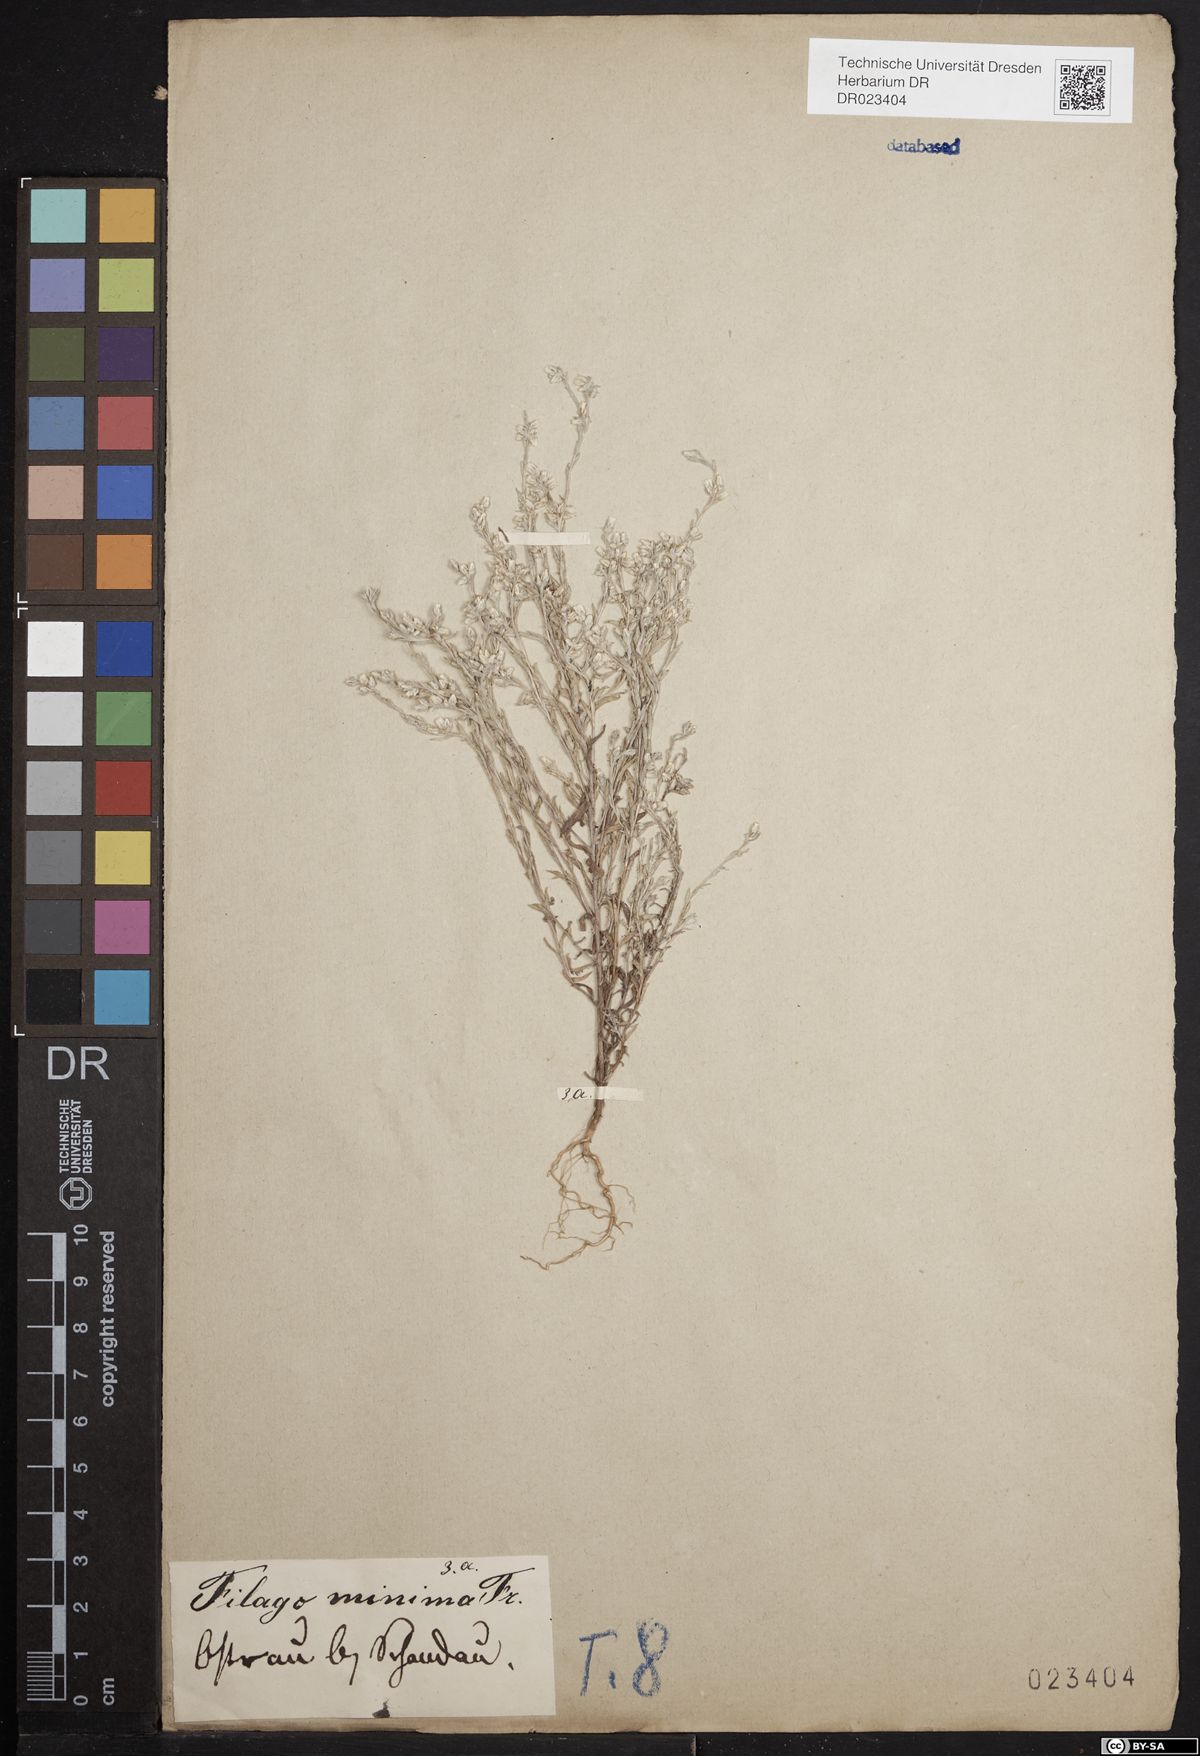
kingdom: Plantae
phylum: Tracheophyta
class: Magnoliopsida
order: Asterales
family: Asteraceae
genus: Logfia
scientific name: Logfia minima
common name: Little cottonrose
